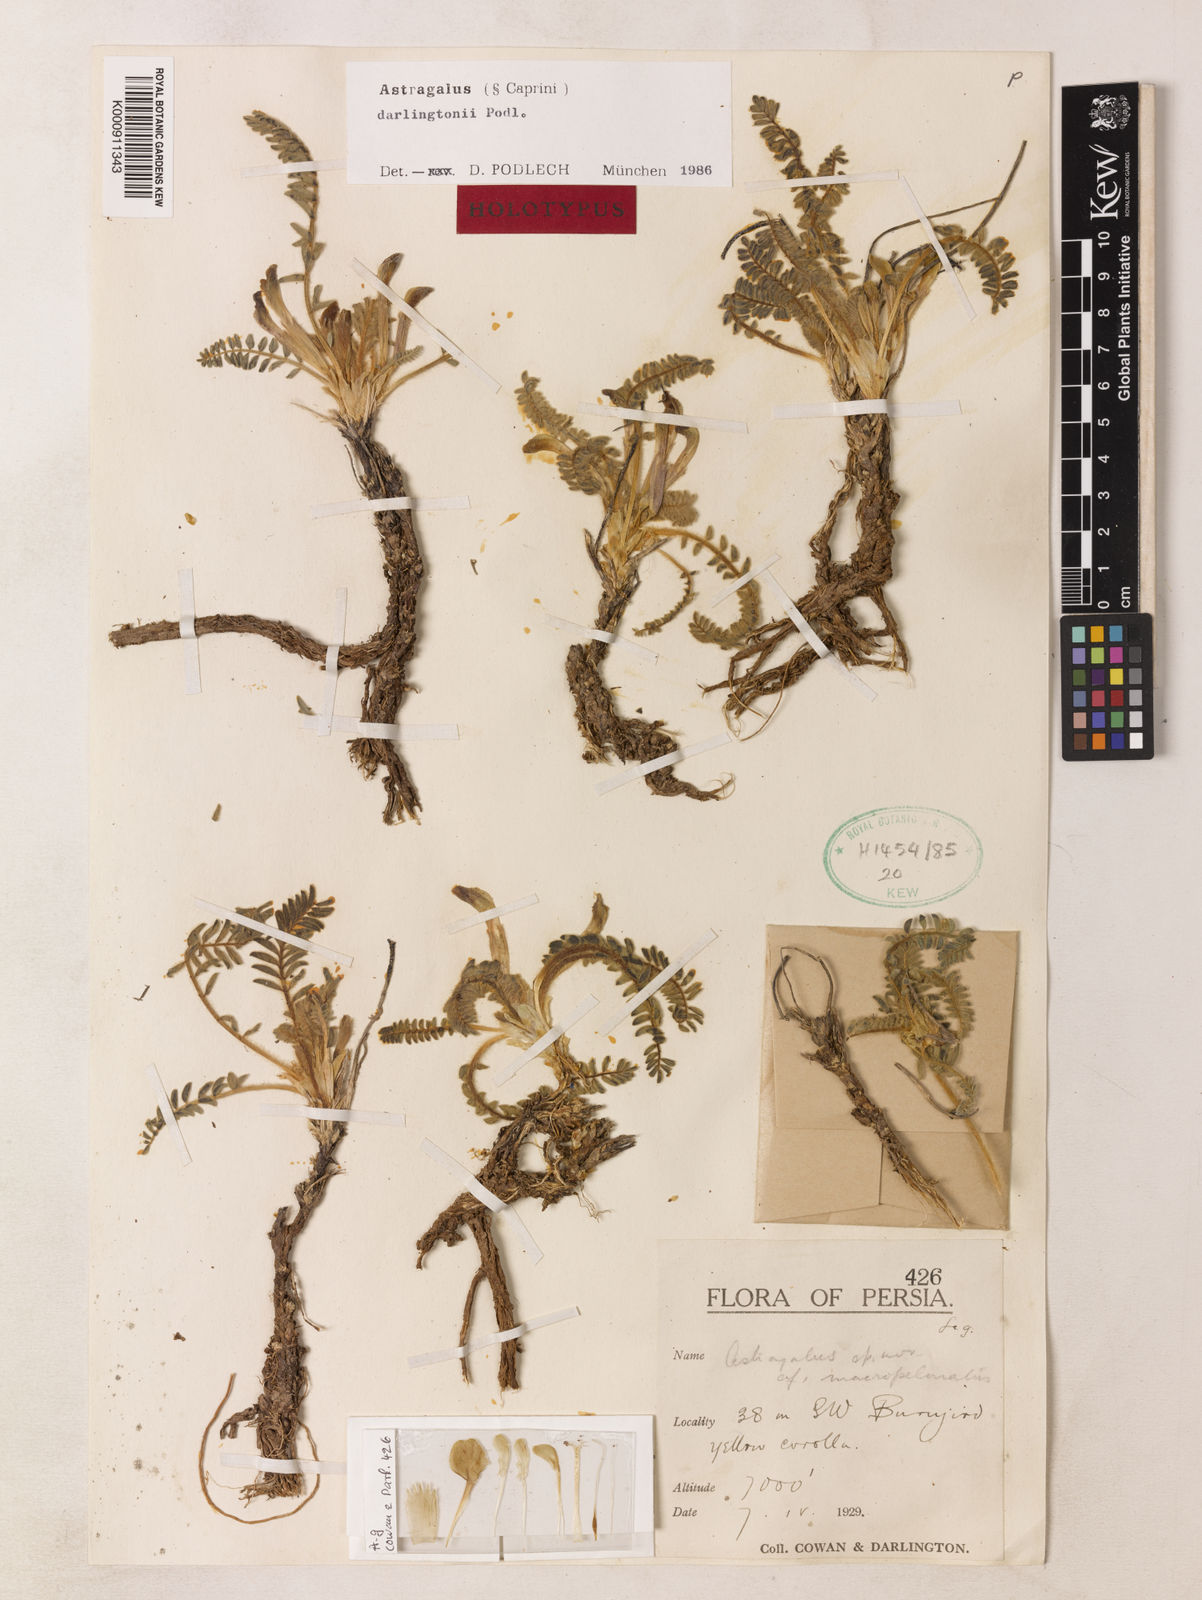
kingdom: Plantae
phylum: Tracheophyta
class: Magnoliopsida
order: Fabales
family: Fabaceae
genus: Astragalus
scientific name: Astragalus maassoumii
